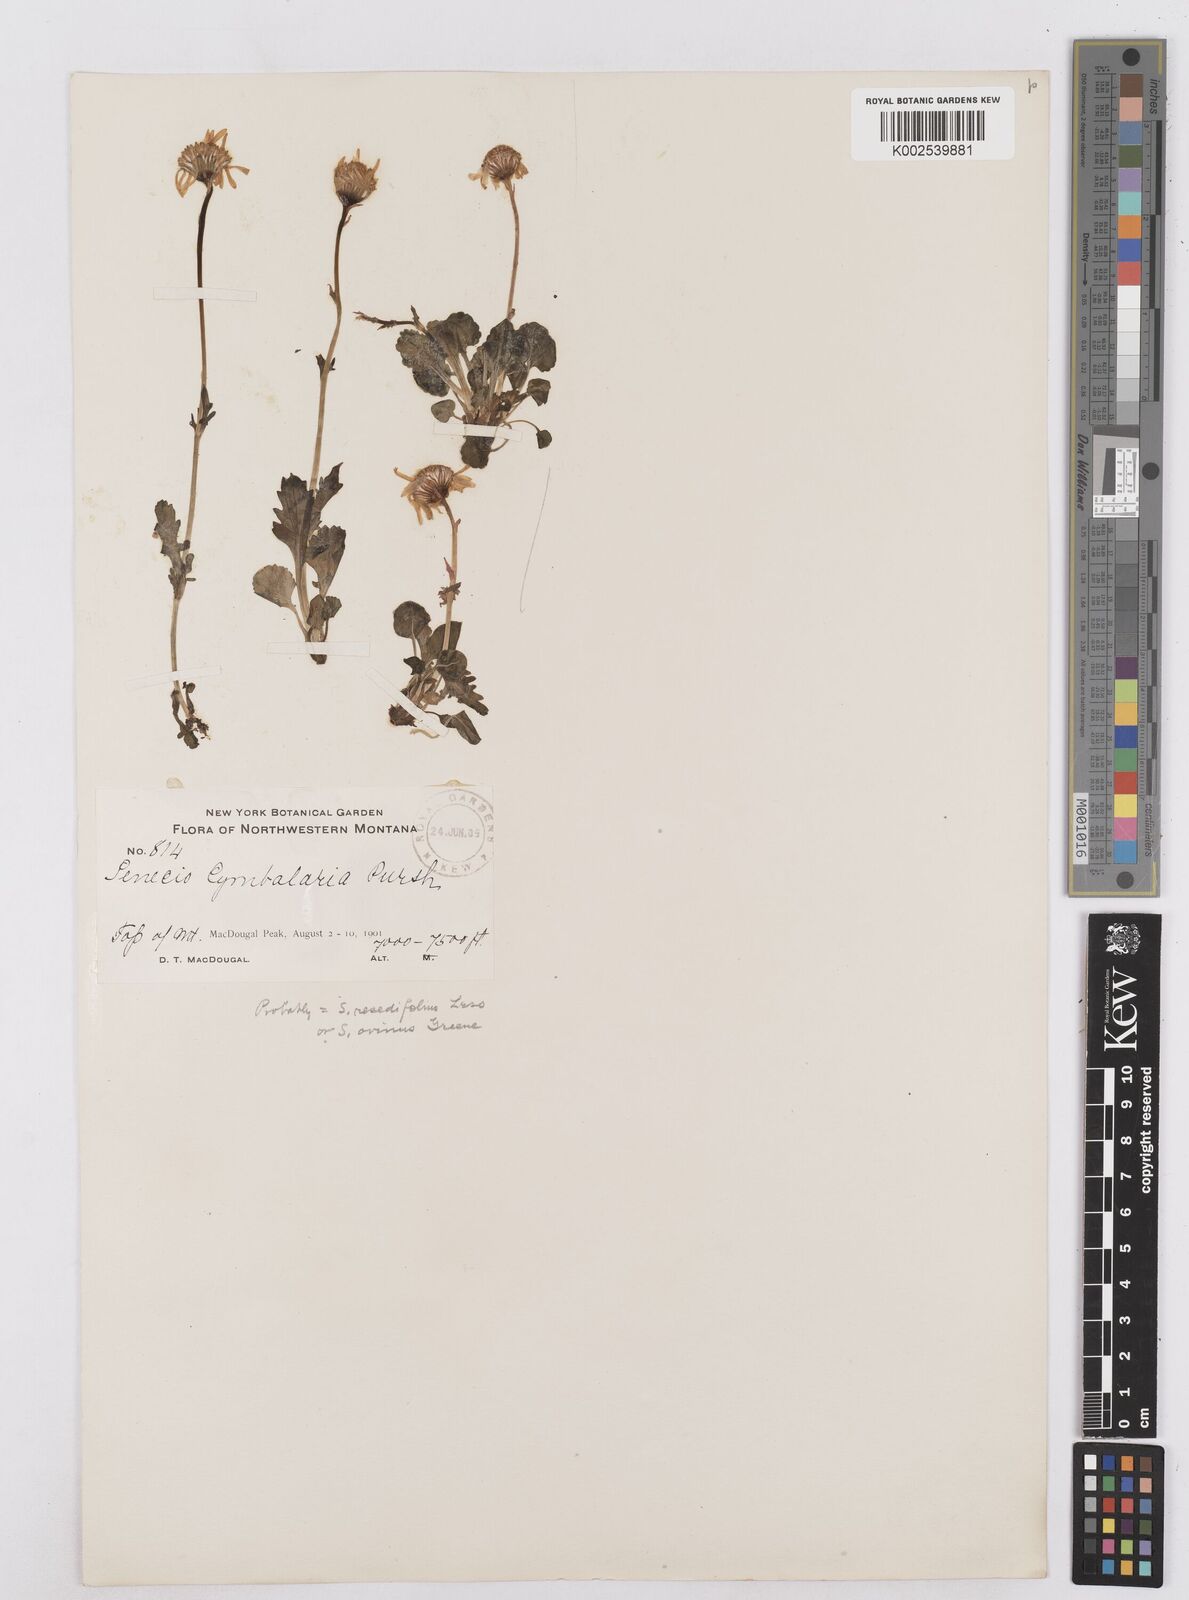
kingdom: Plantae
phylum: Tracheophyta
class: Magnoliopsida
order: Asterales
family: Asteraceae
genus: Packera
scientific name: Packera cymbalaria
